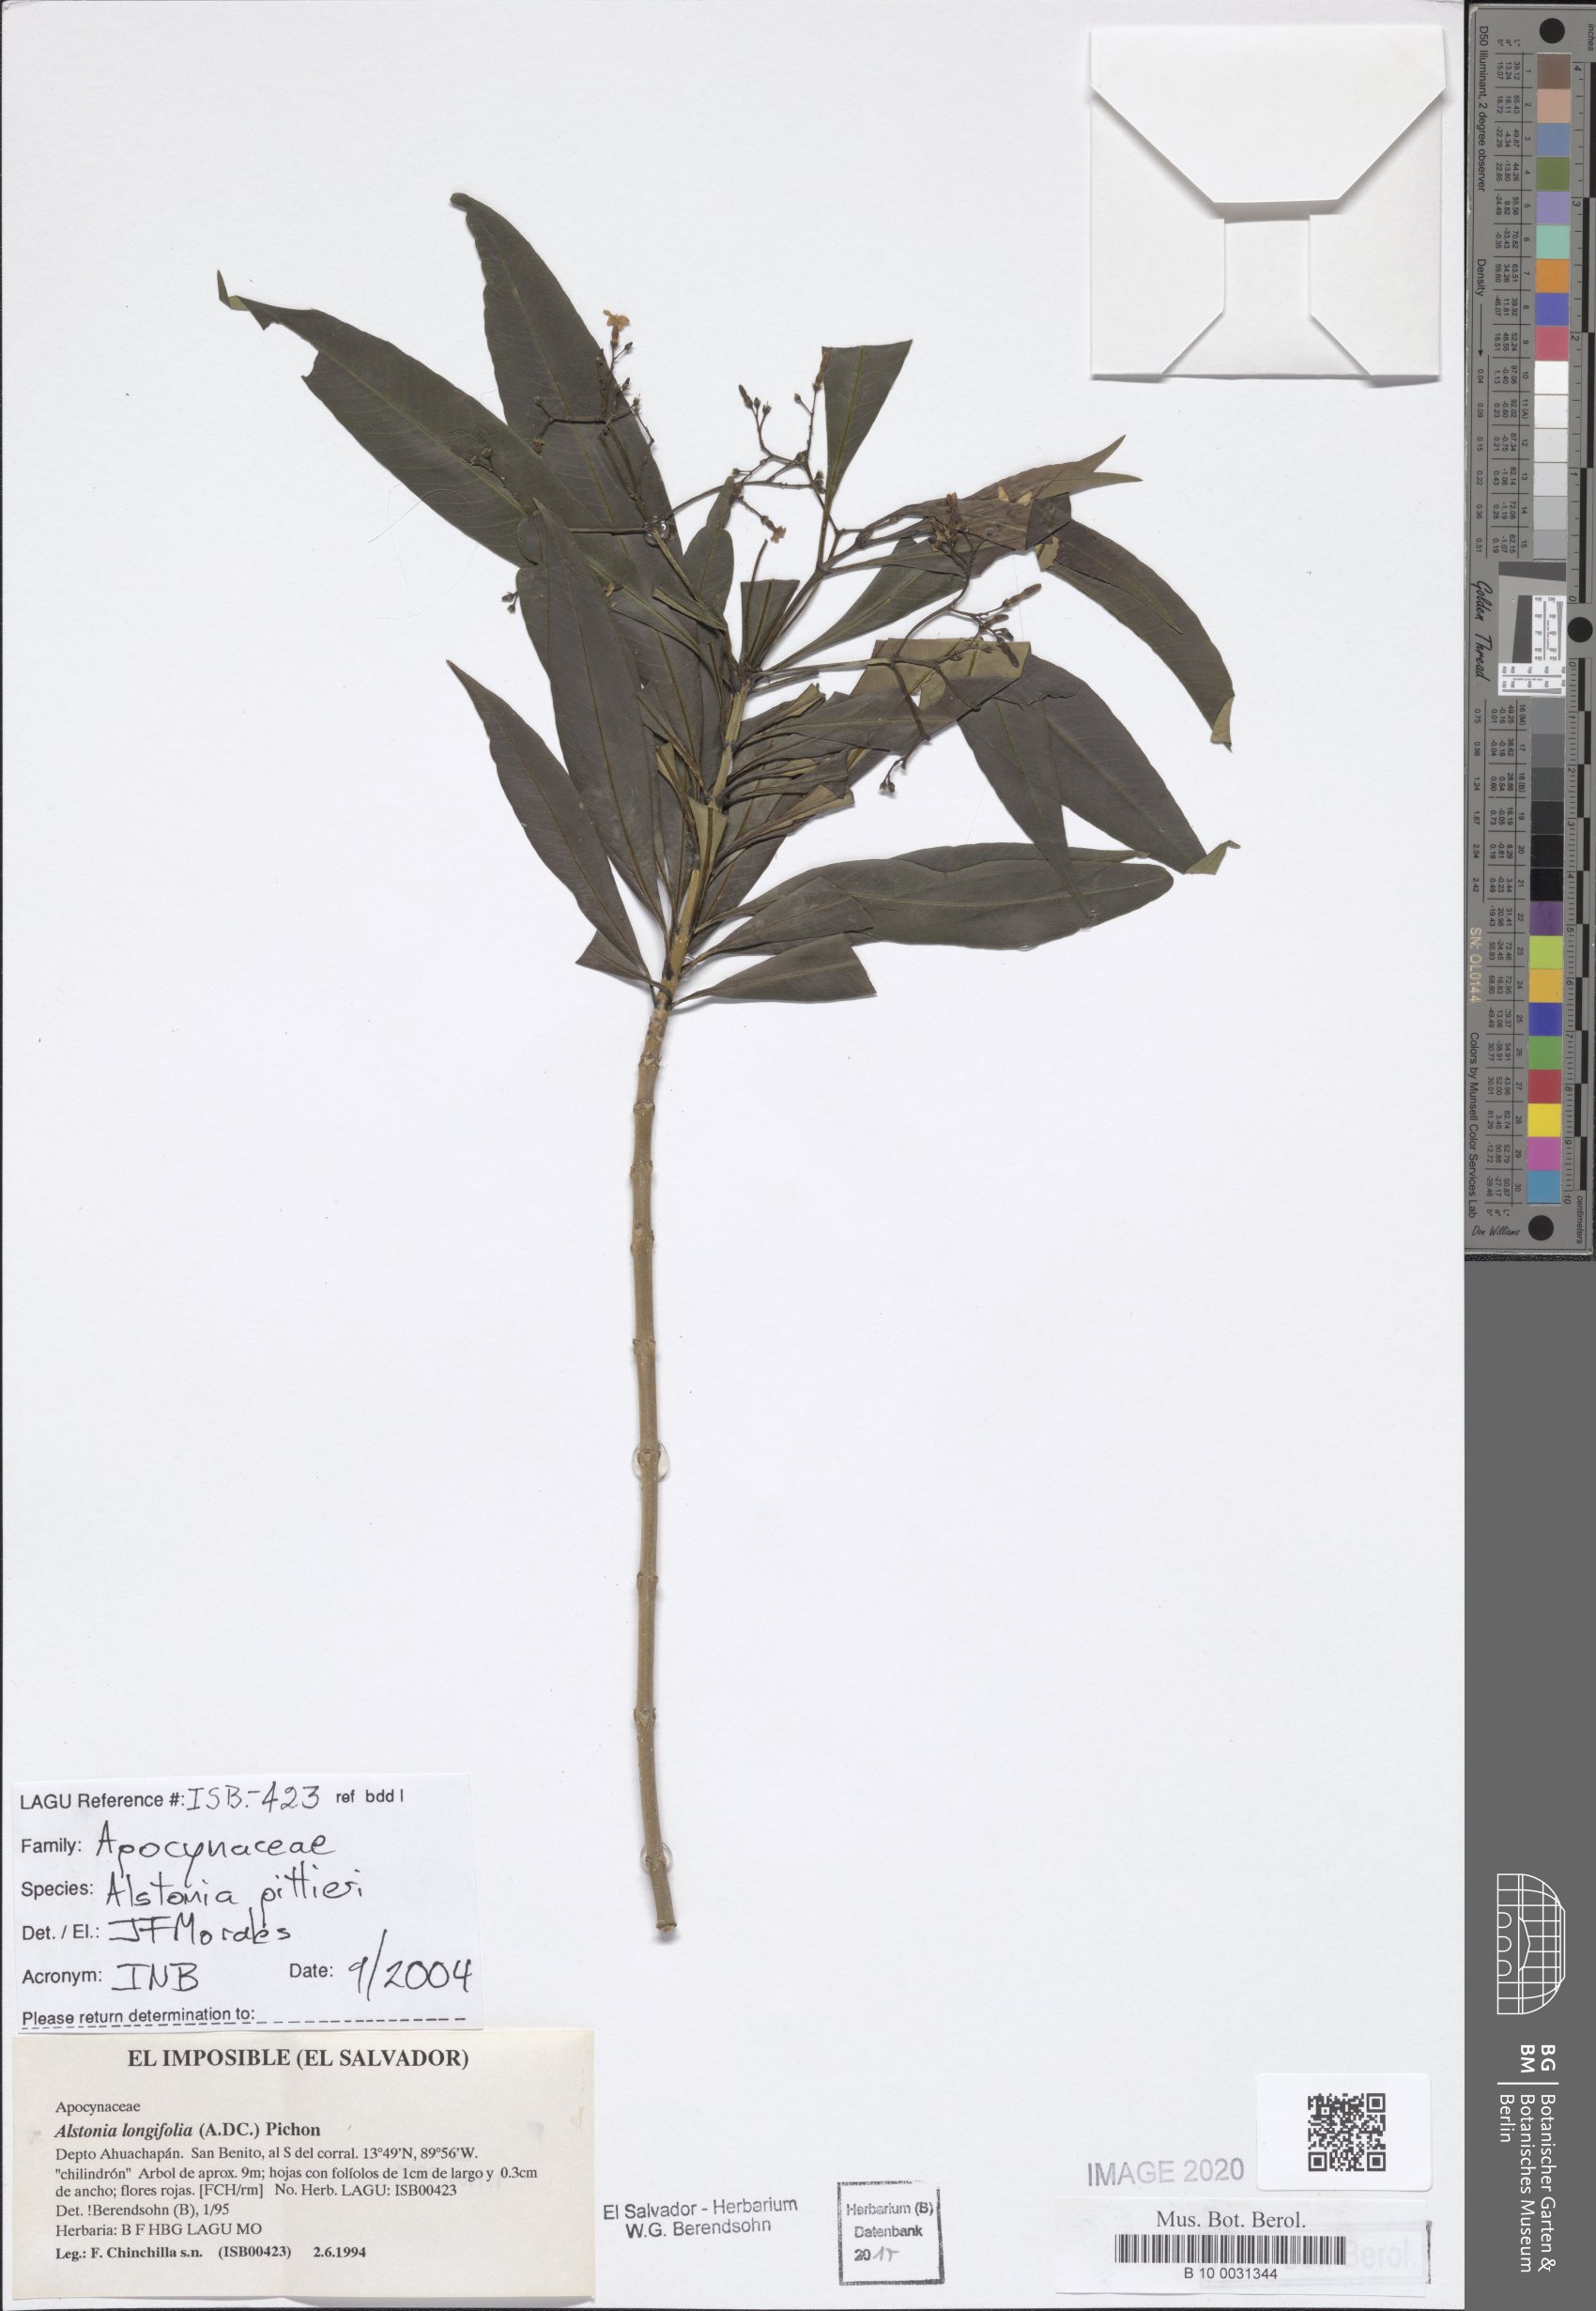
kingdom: Plantae
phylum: Tracheophyta
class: Magnoliopsida
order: Gentianales
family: Apocynaceae
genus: Tonduzia
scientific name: Tonduzia longifolia
